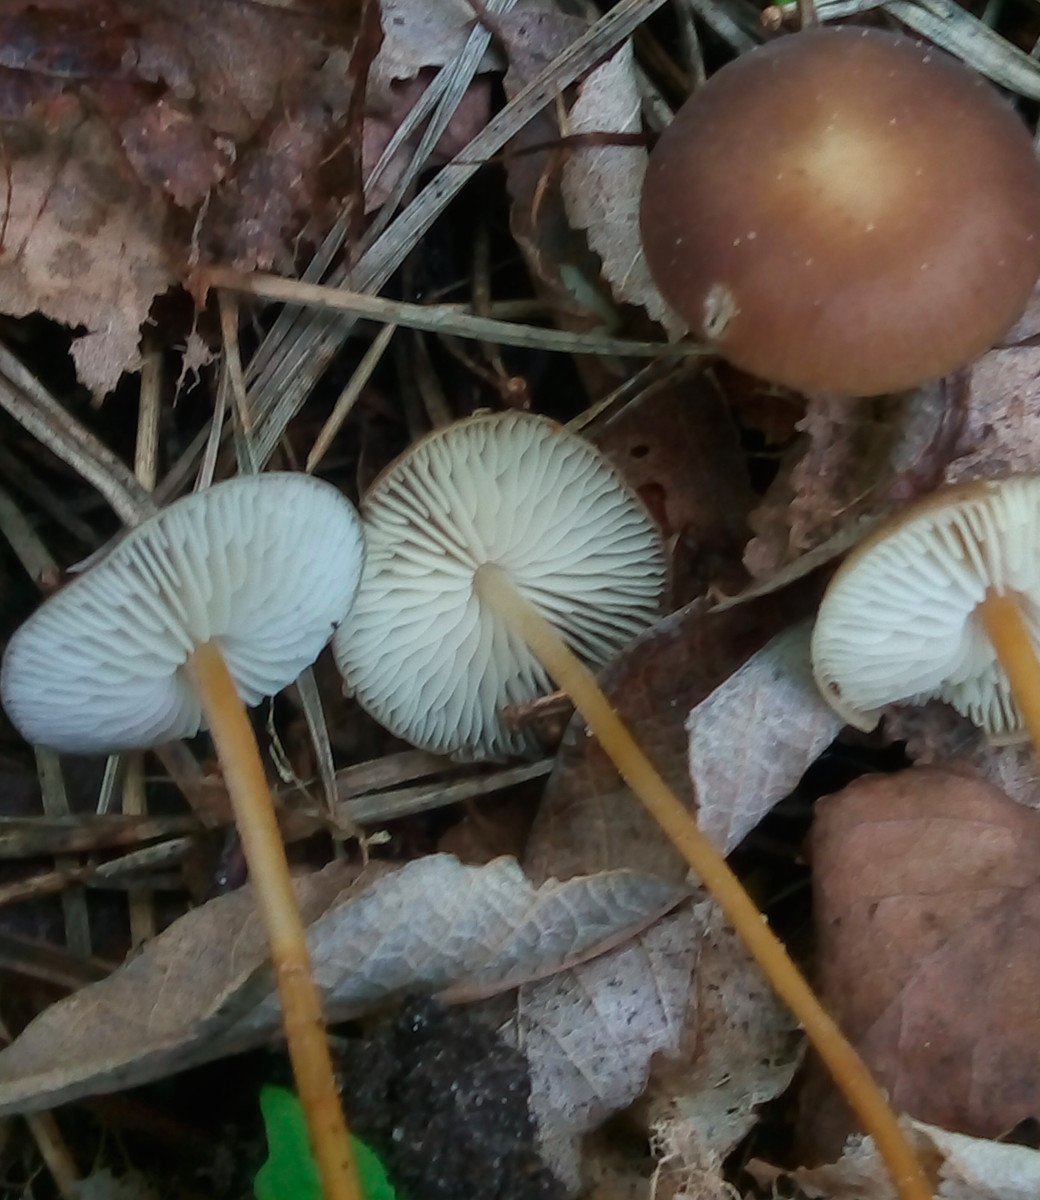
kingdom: Fungi
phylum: Basidiomycota
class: Agaricomycetes
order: Agaricales
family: Physalacriaceae
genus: Strobilurus
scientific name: Strobilurus
